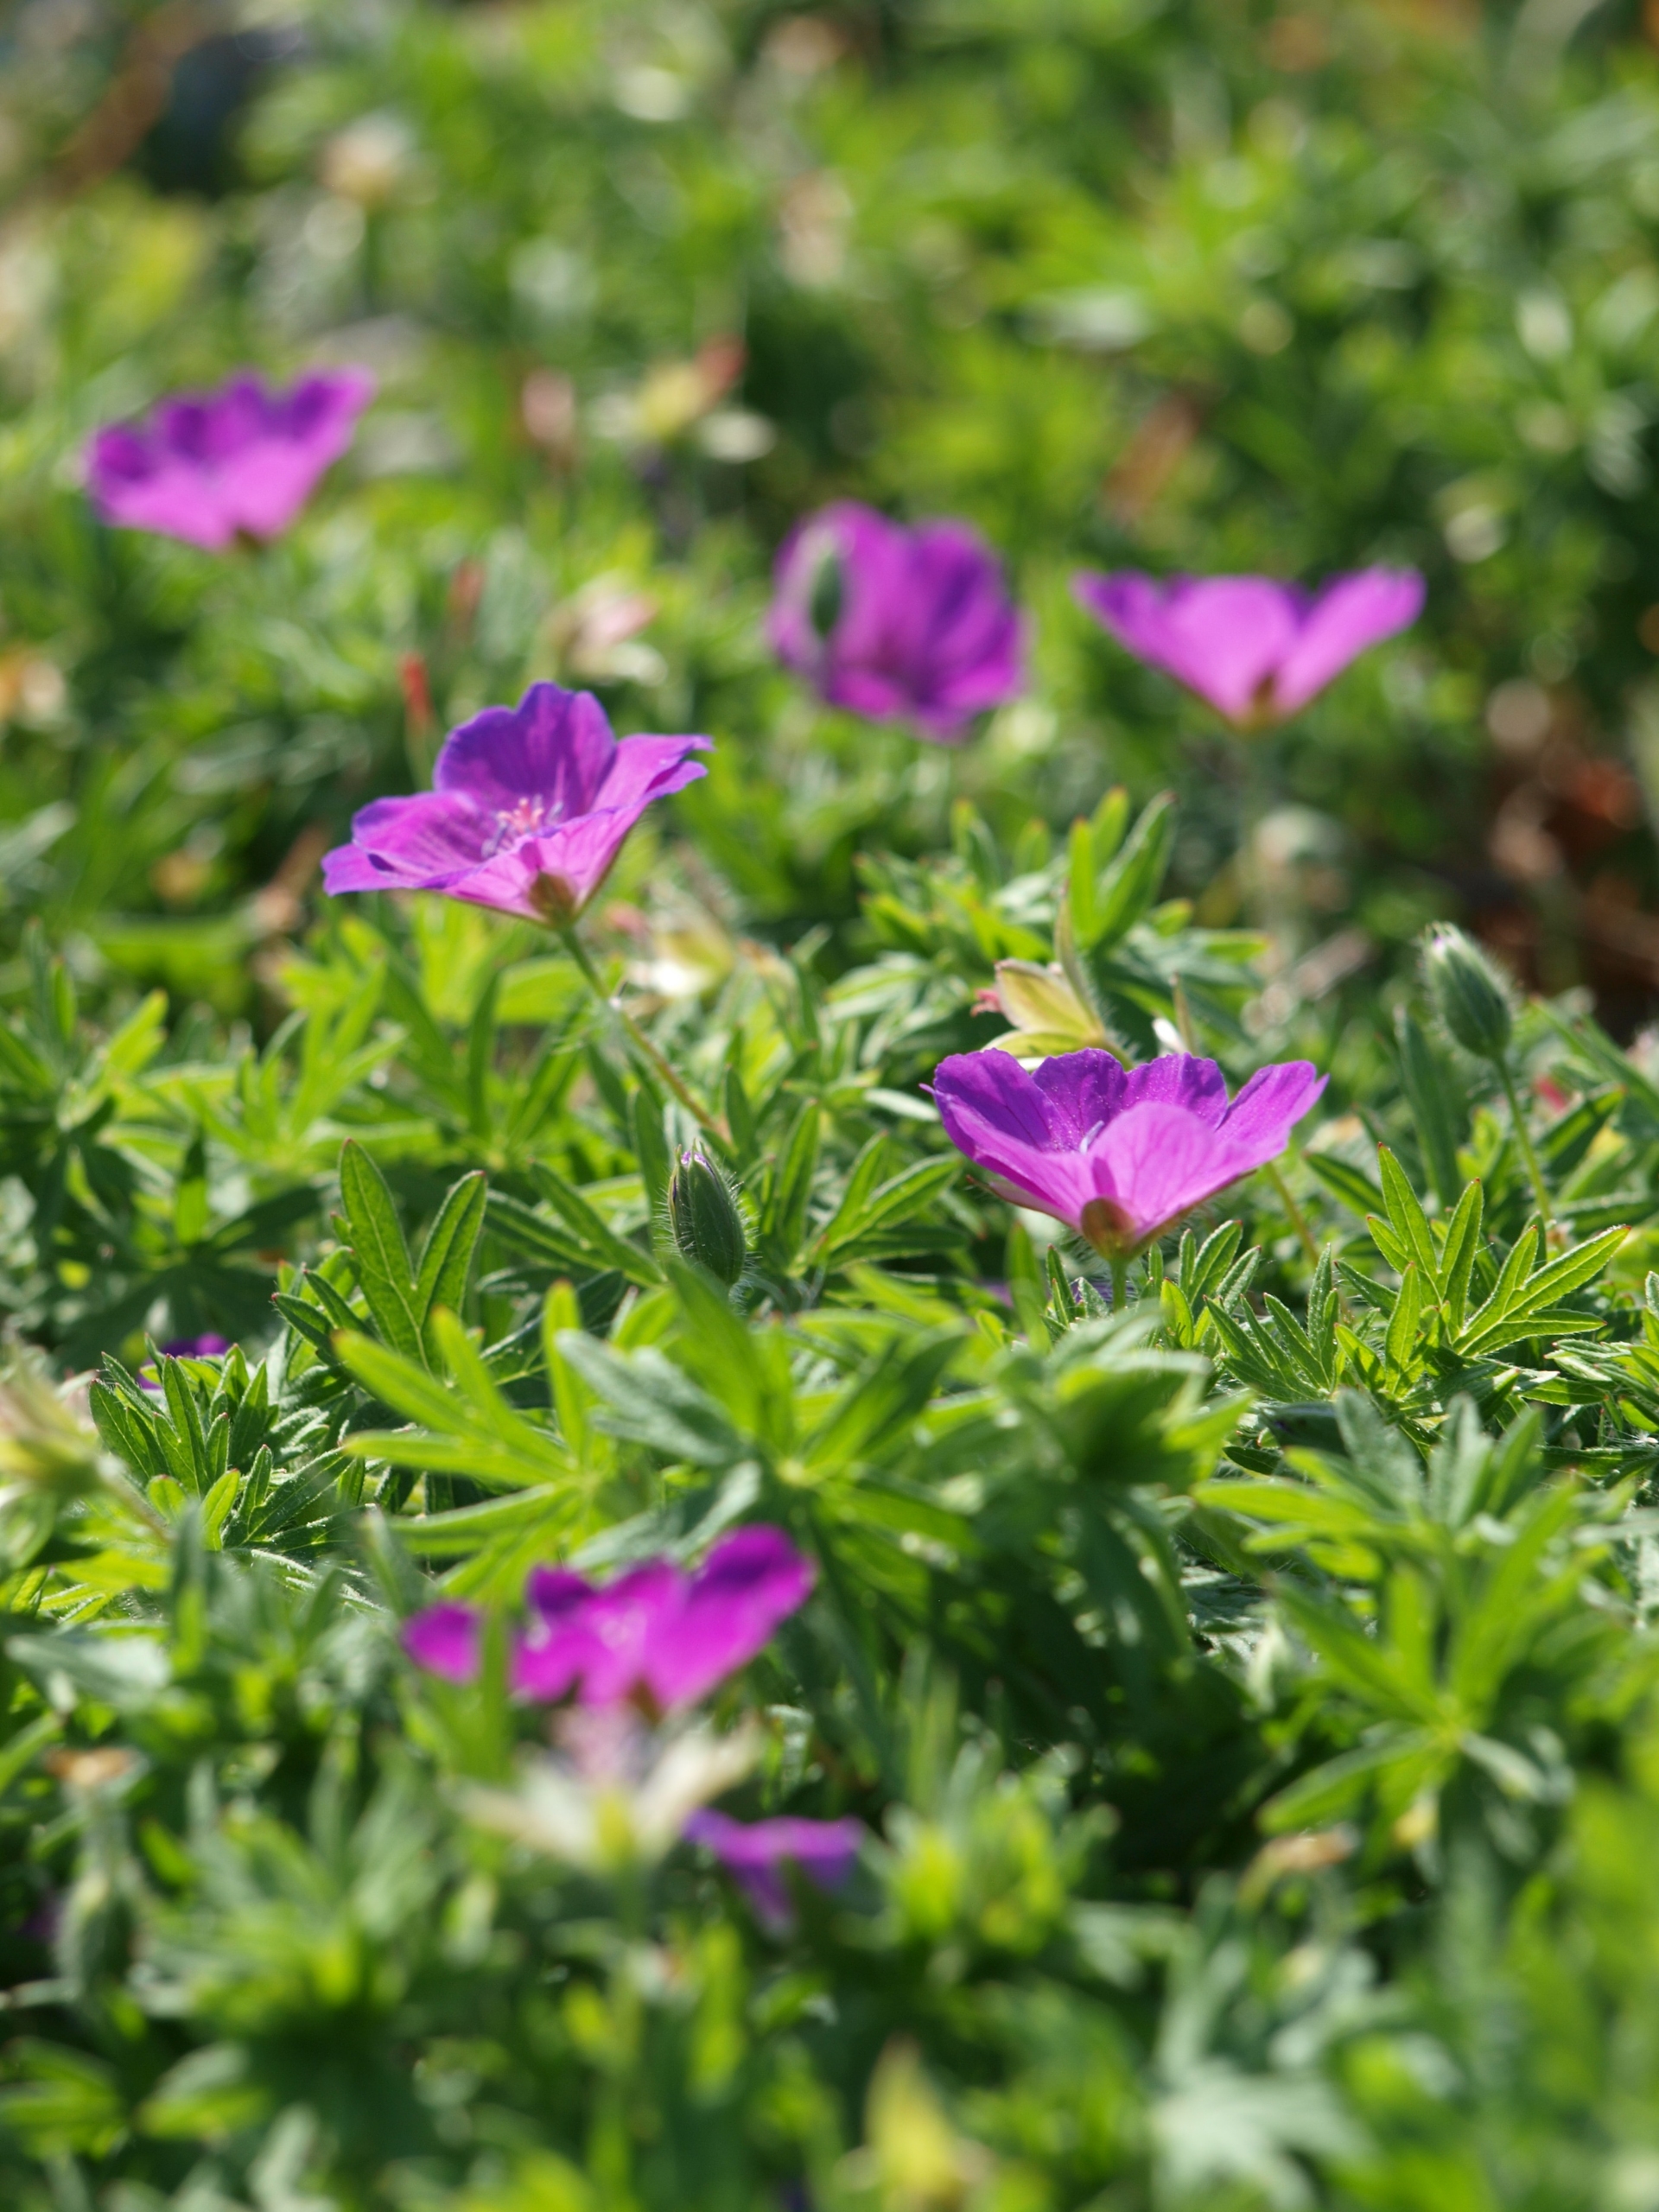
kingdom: Plantae
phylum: Tracheophyta
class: Magnoliopsida
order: Geraniales
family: Geraniaceae
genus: Geranium
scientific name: Geranium sanguineum
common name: Blodrød storkenæb
